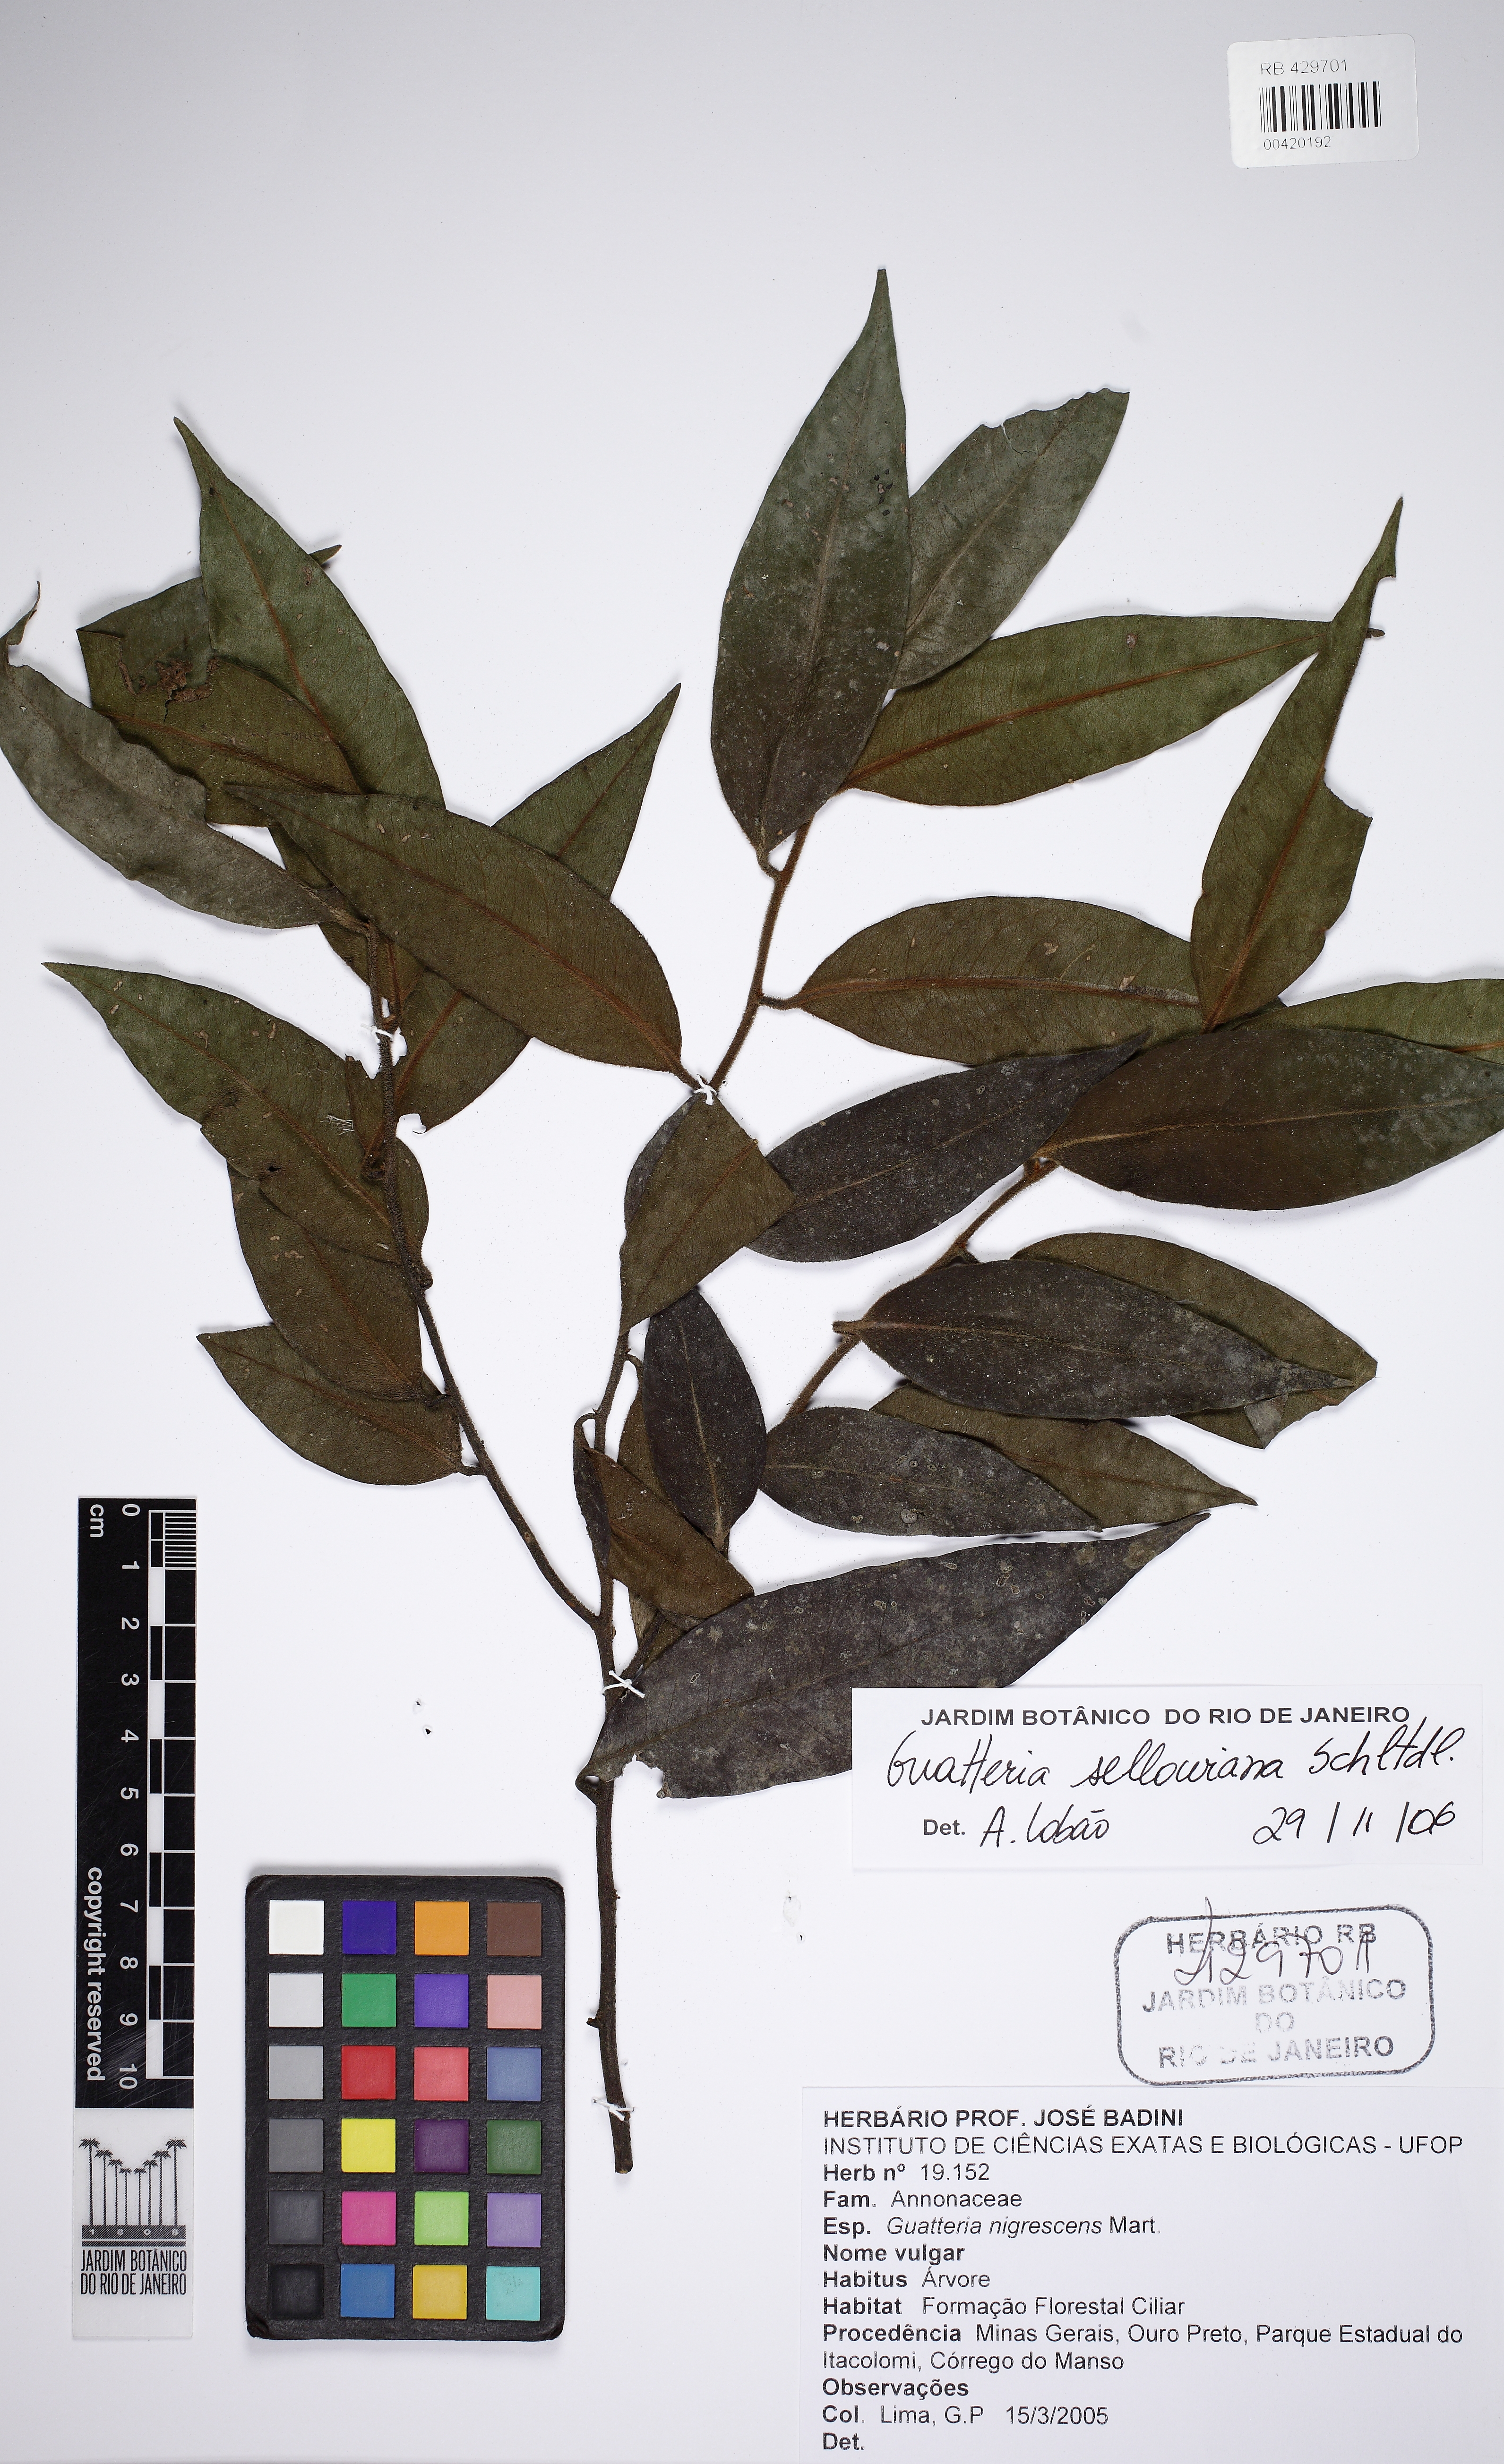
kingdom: Plantae
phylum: Tracheophyta
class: Magnoliopsida
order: Magnoliales
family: Annonaceae
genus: Guatteria
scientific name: Guatteria australis
